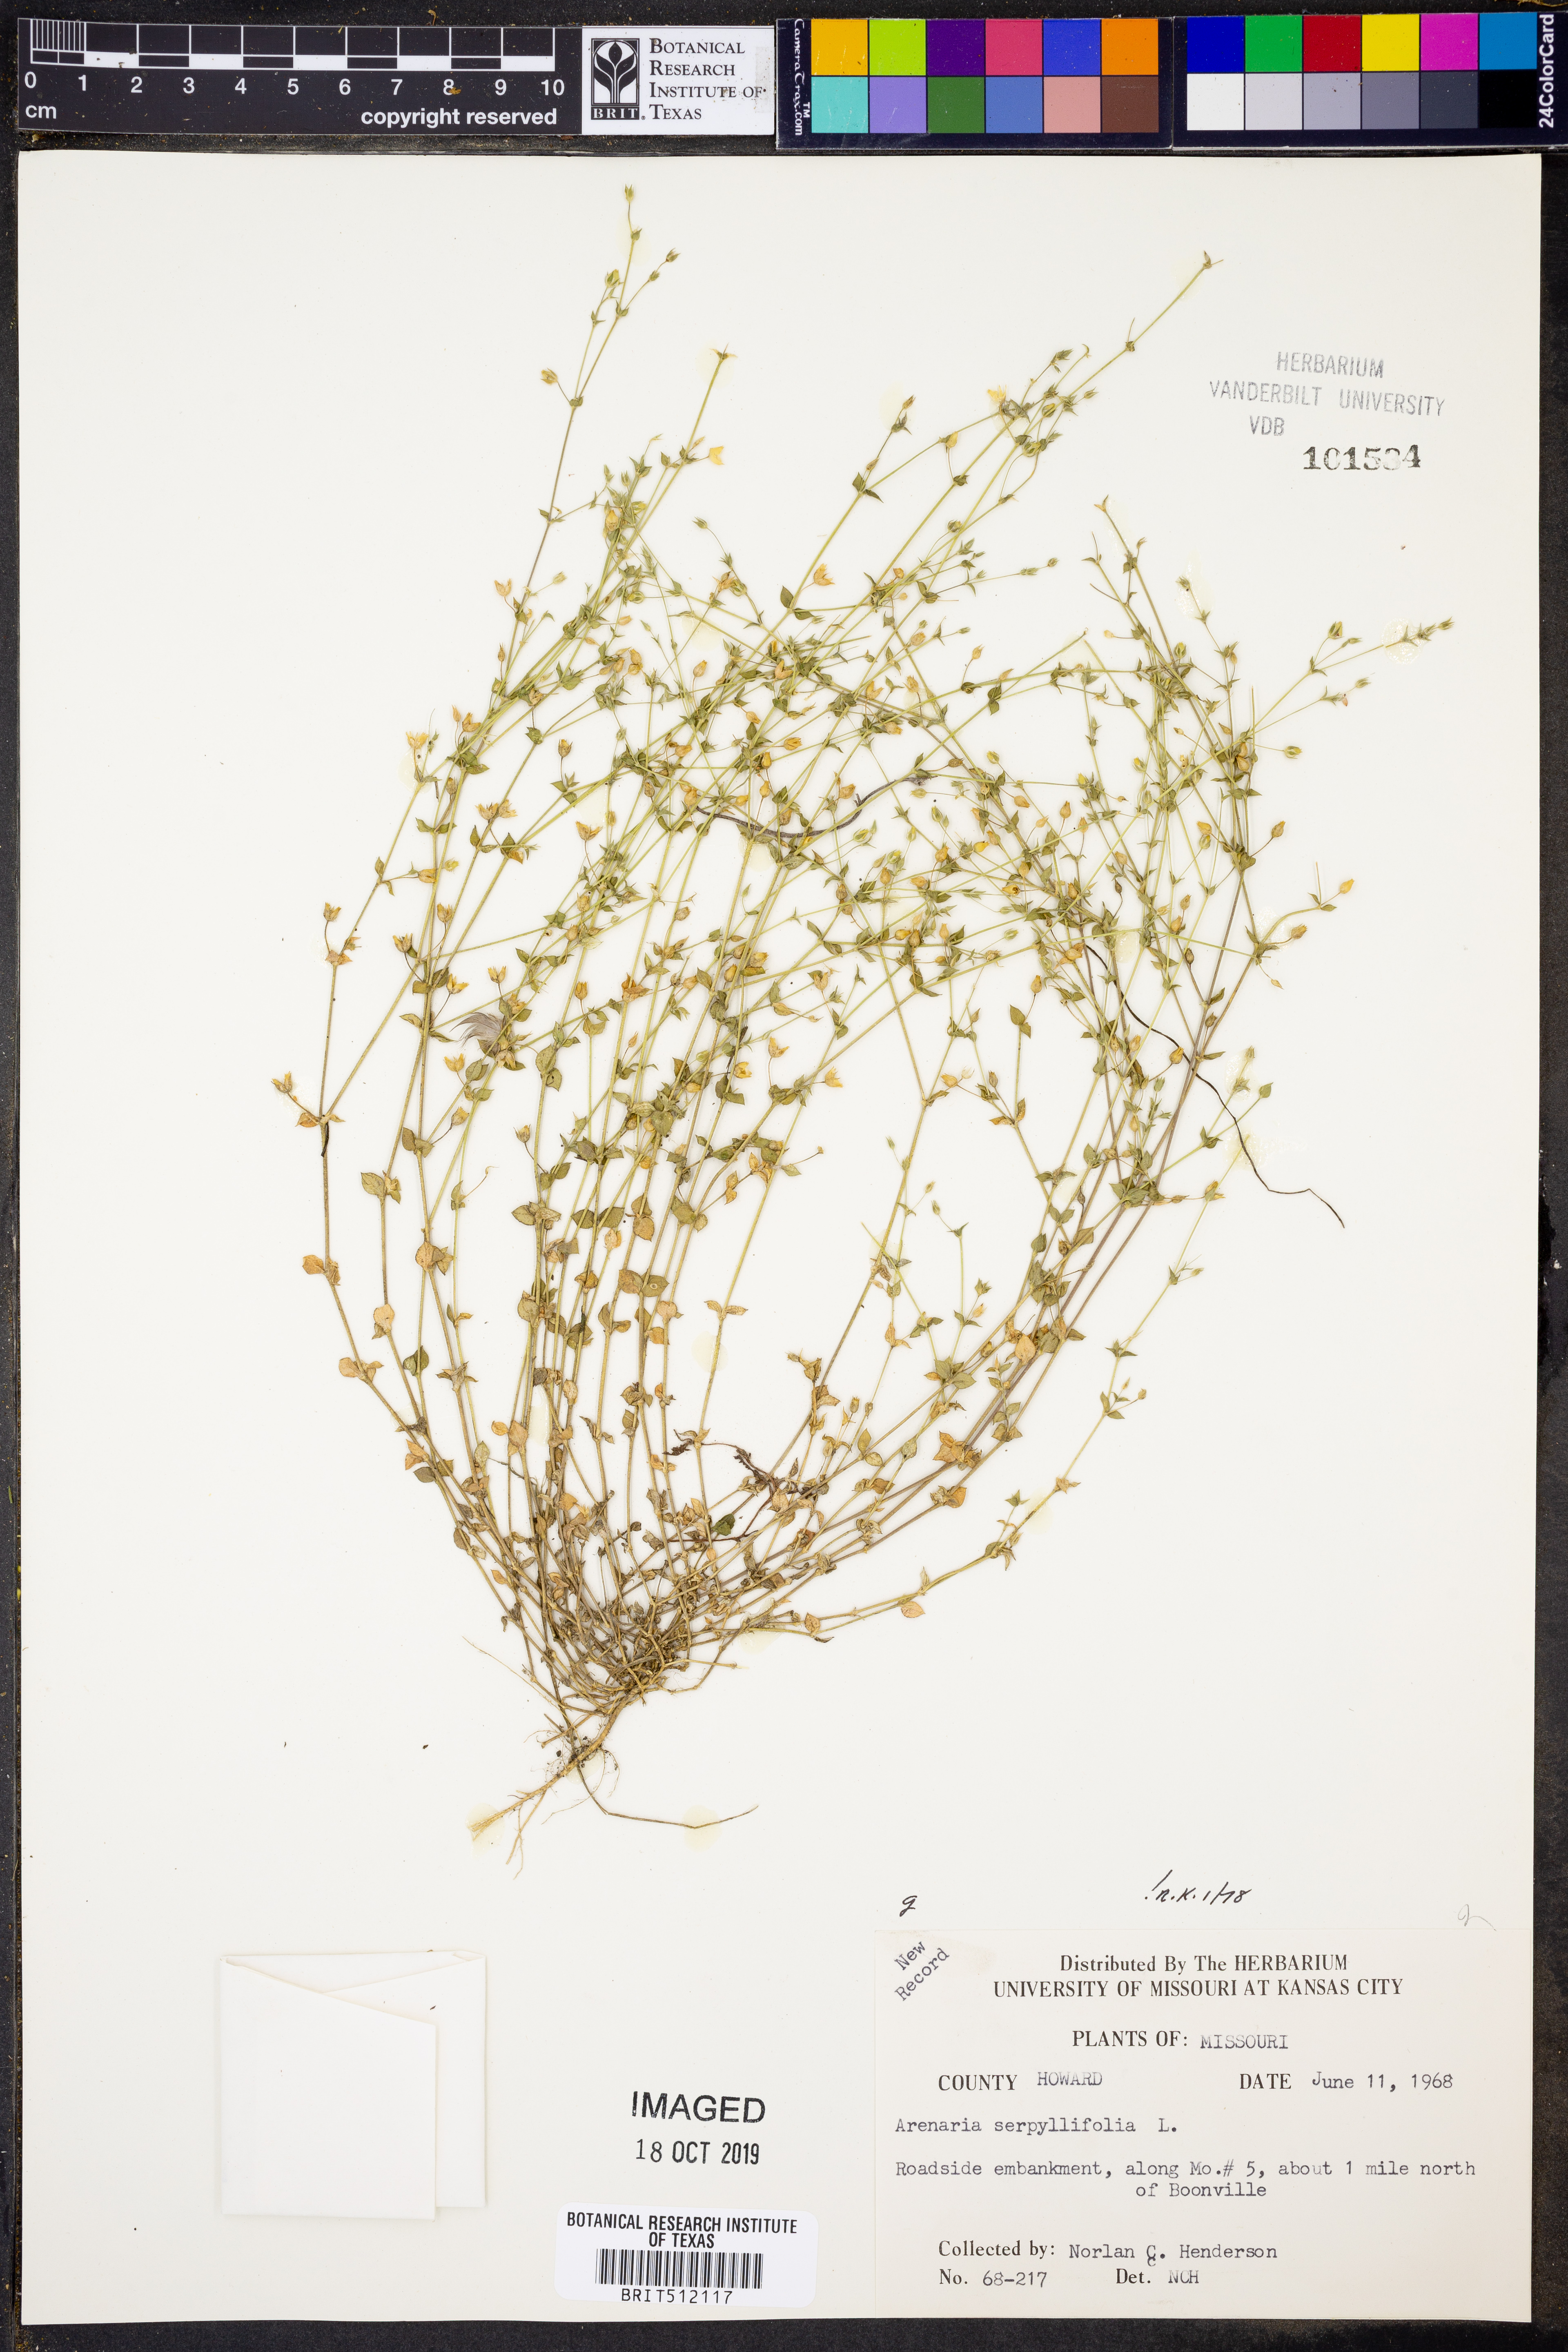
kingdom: Plantae
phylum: Tracheophyta
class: Magnoliopsida
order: Caryophyllales
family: Caryophyllaceae
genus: Arenaria
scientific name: Arenaria serpyllifolia
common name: Thyme-leaved sandwort
